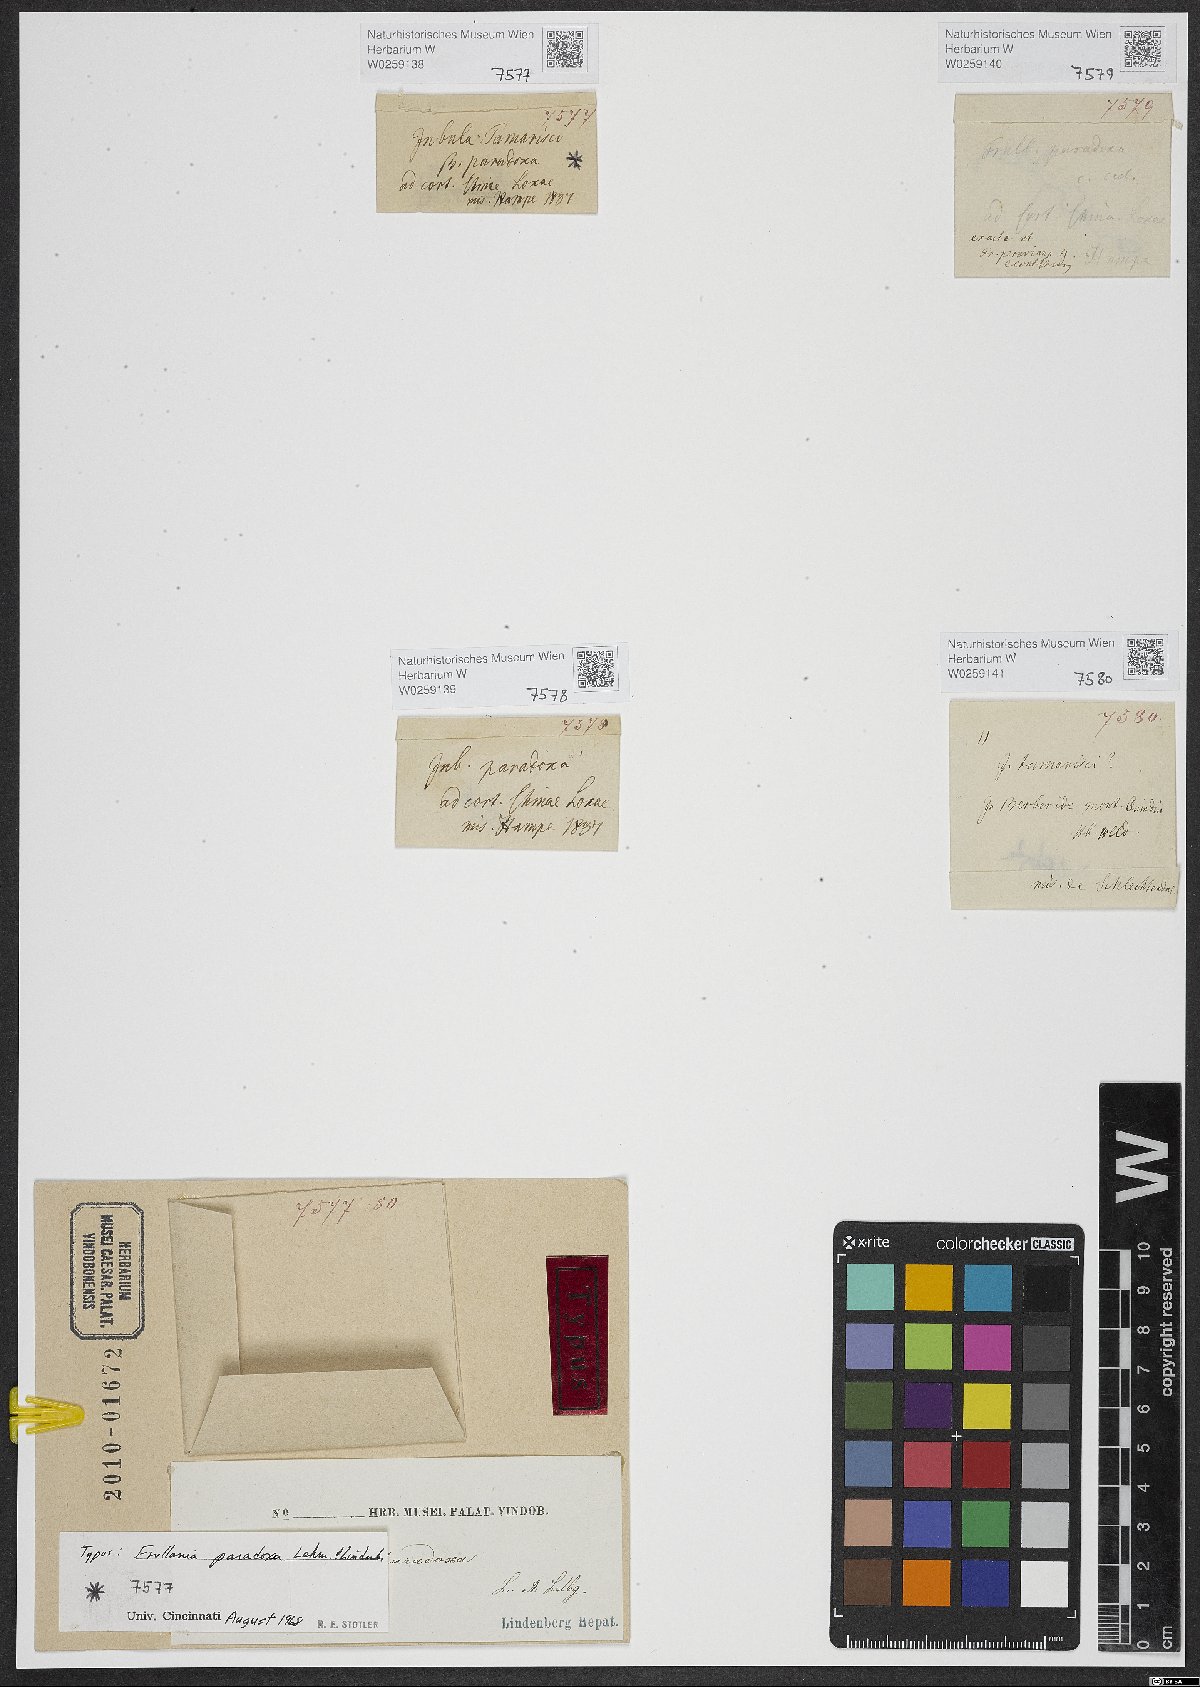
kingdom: Plantae
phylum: Marchantiophyta
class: Jungermanniopsida
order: Porellales
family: Frullaniaceae
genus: Frullania
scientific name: Frullania paradoxa
